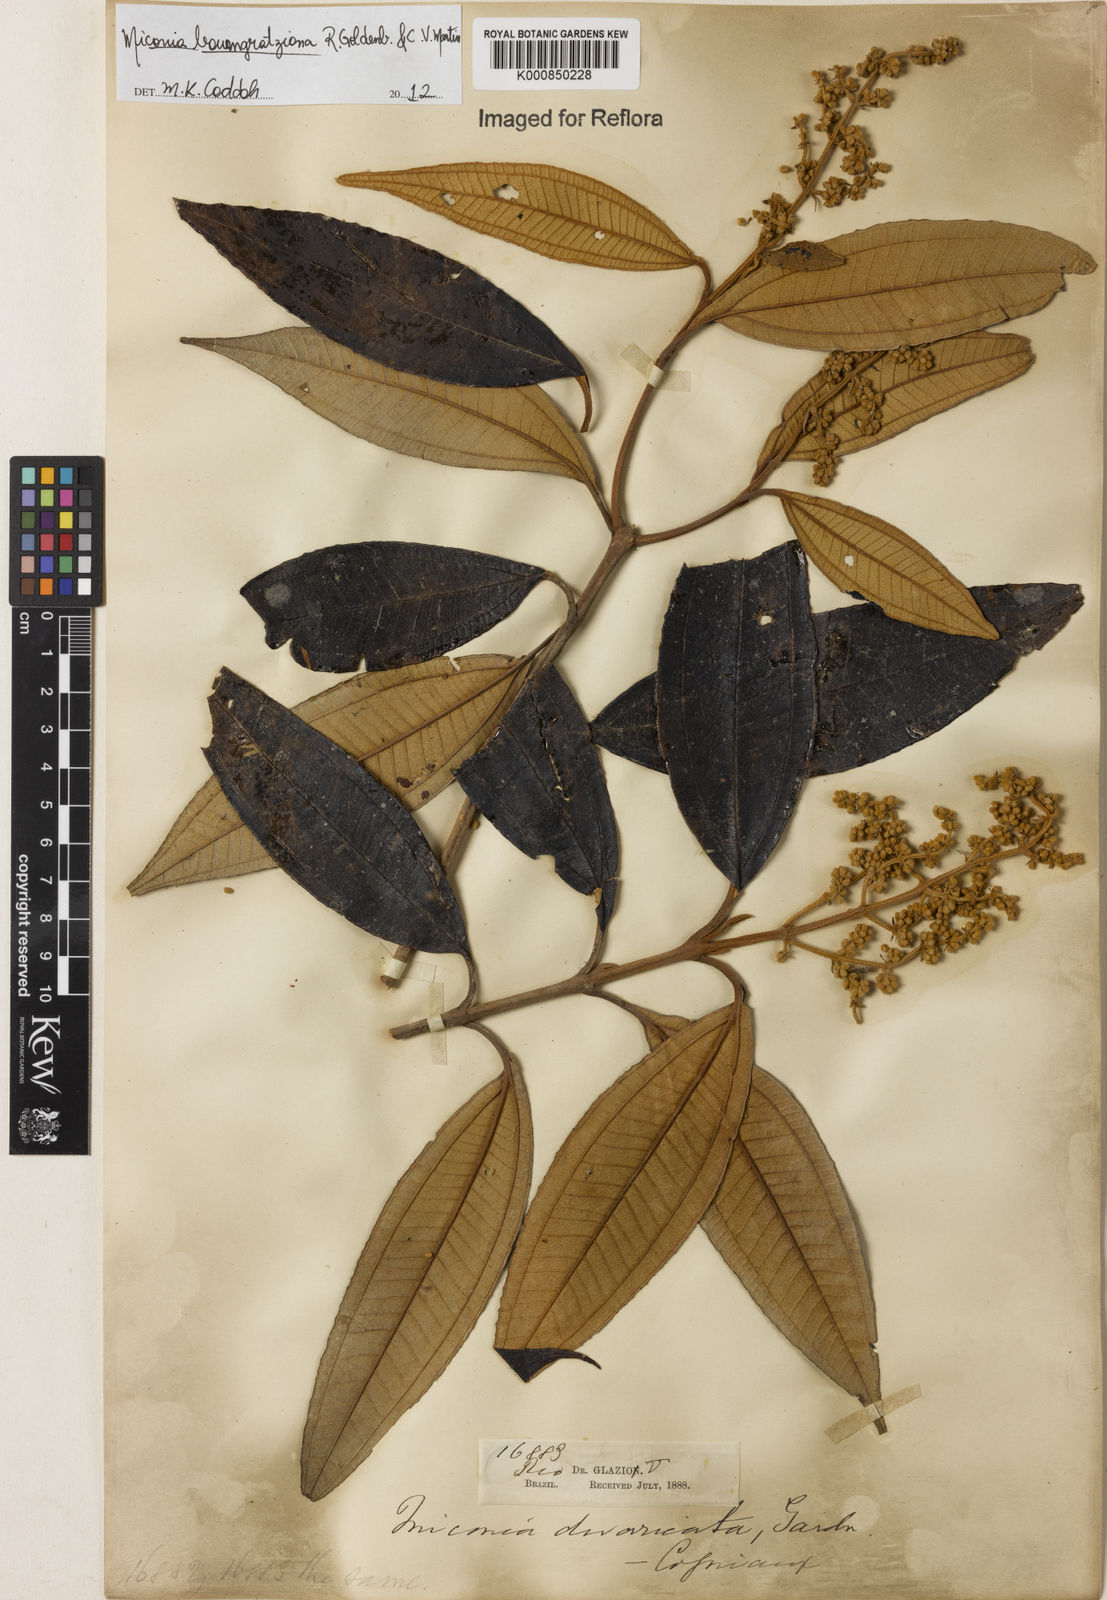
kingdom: Plantae
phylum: Tracheophyta
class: Magnoliopsida
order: Myrtales
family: Melastomataceae
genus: Miconia
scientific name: Miconia baumgratziana
